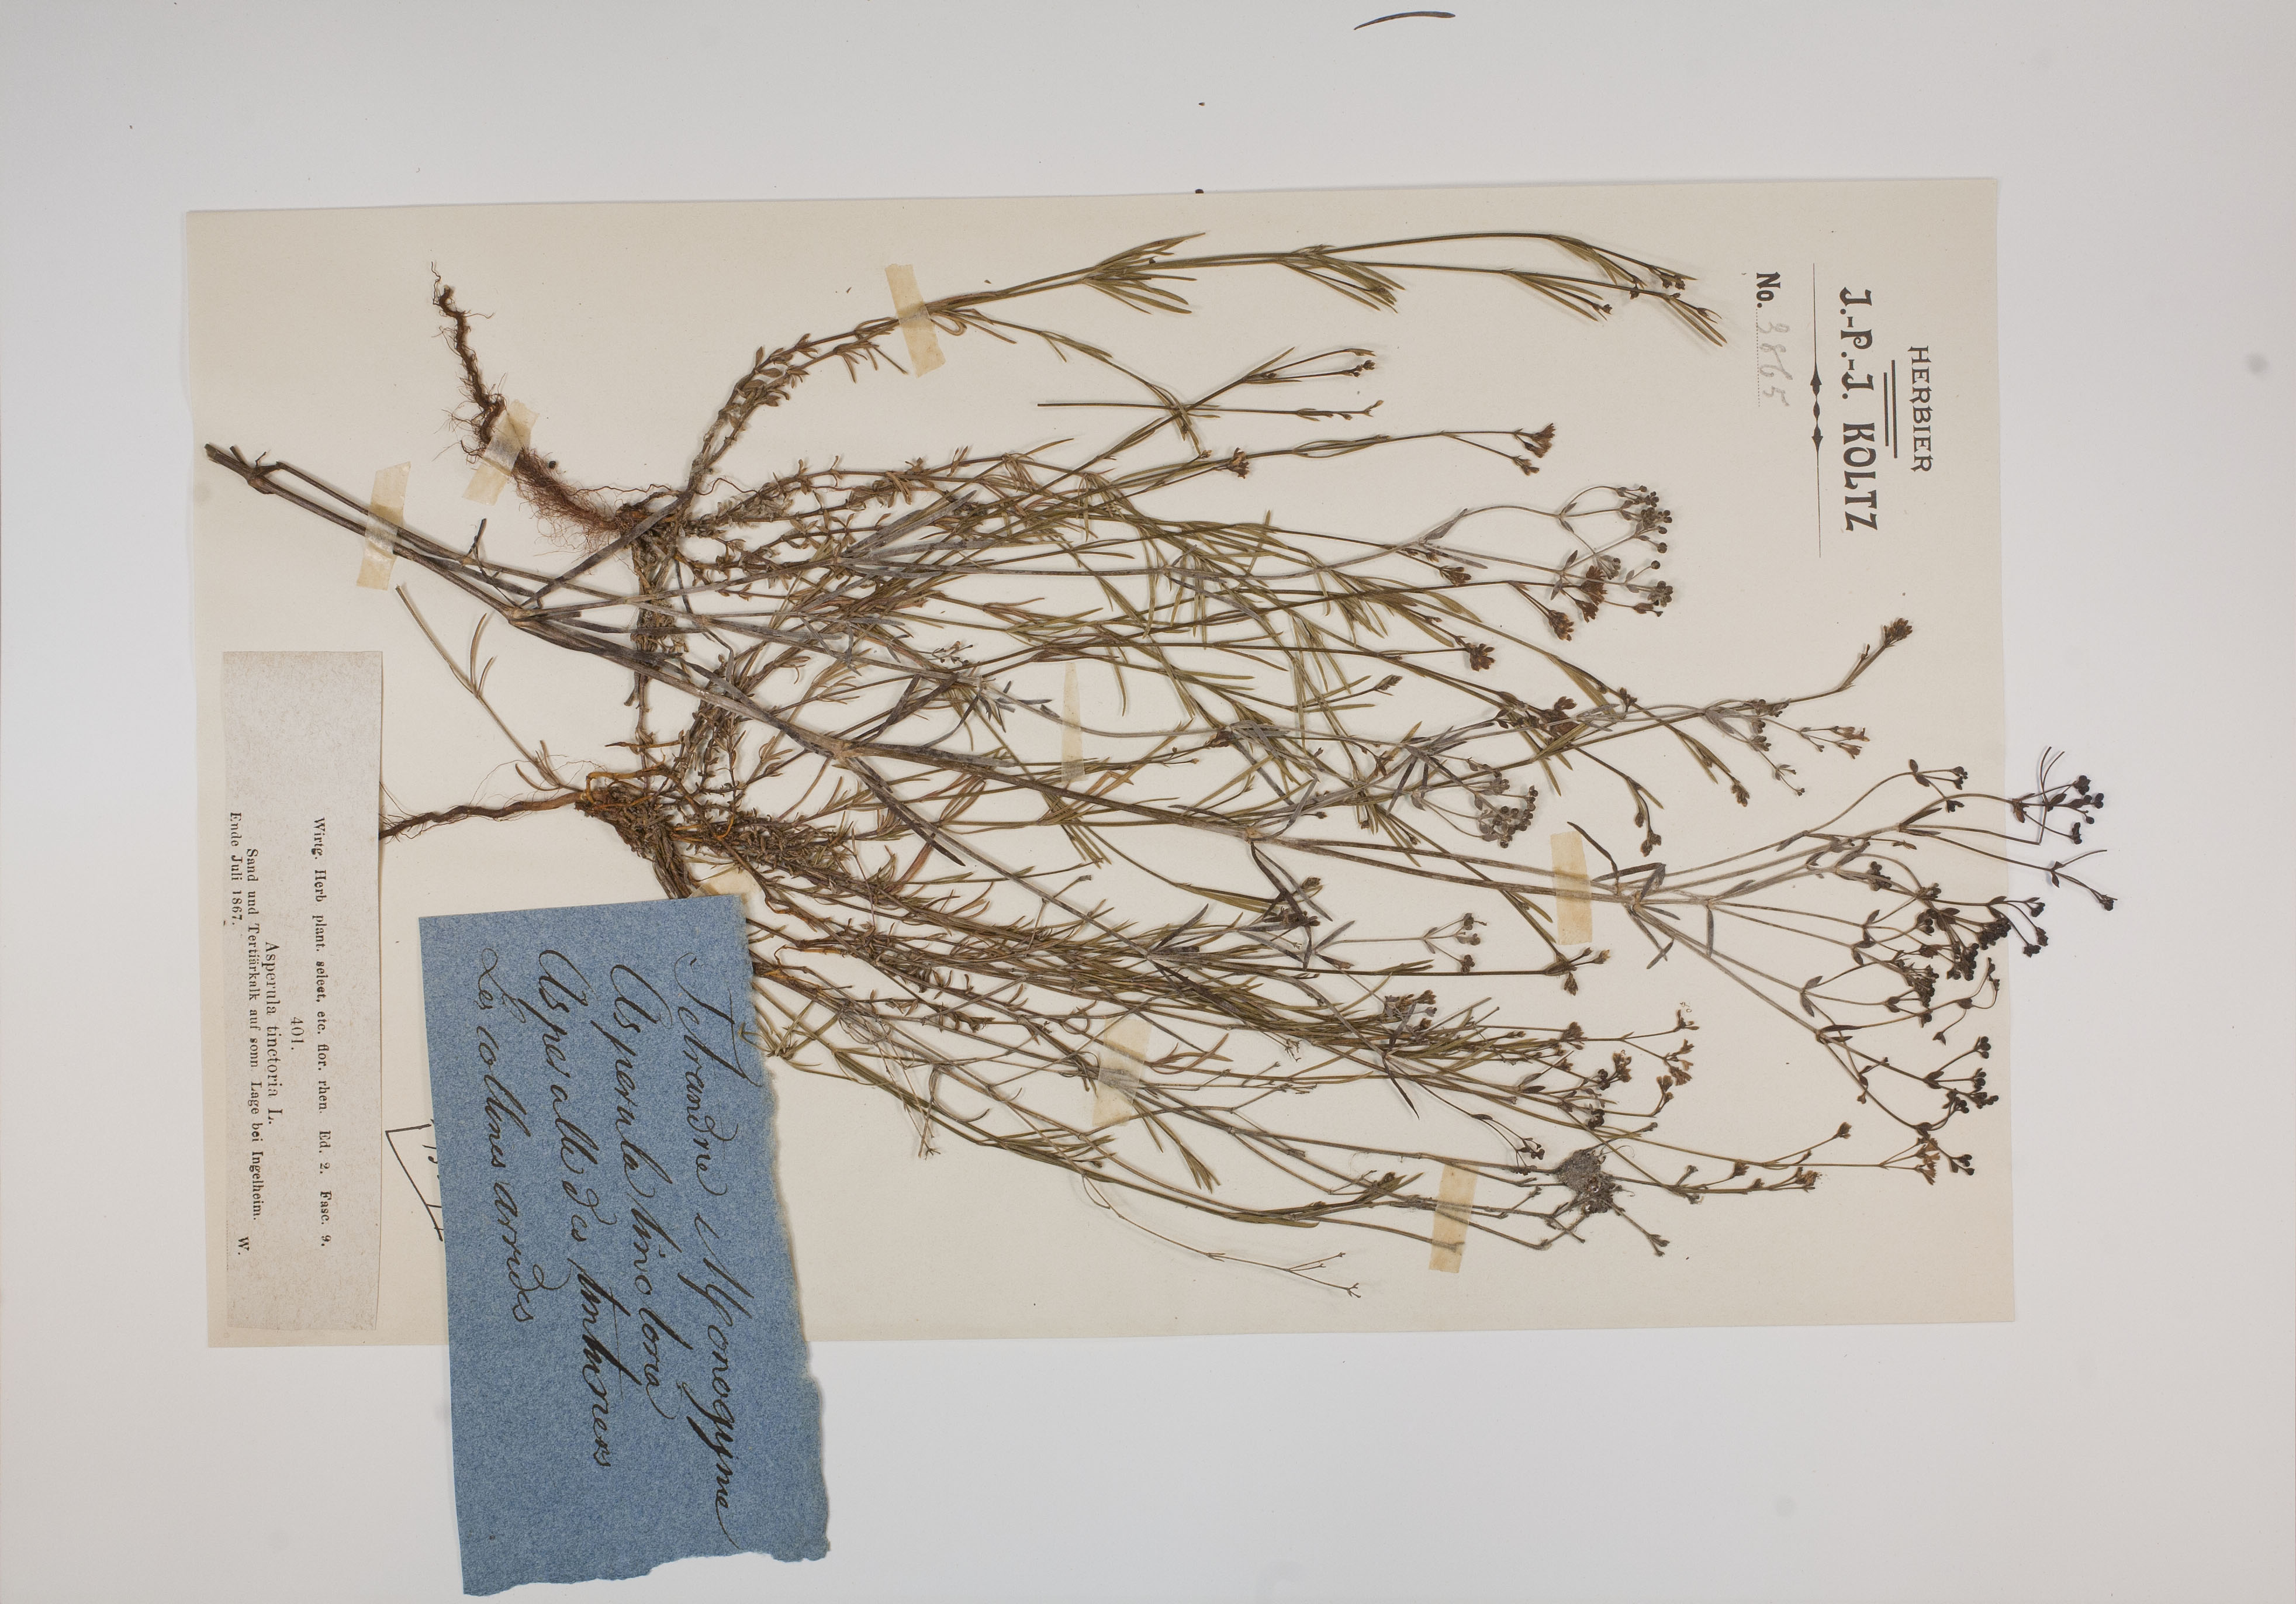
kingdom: Plantae
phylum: Tracheophyta
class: Magnoliopsida
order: Gentianales
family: Rubiaceae
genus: Asperula
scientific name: Asperula tinctoria
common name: Dyer's woodruff
